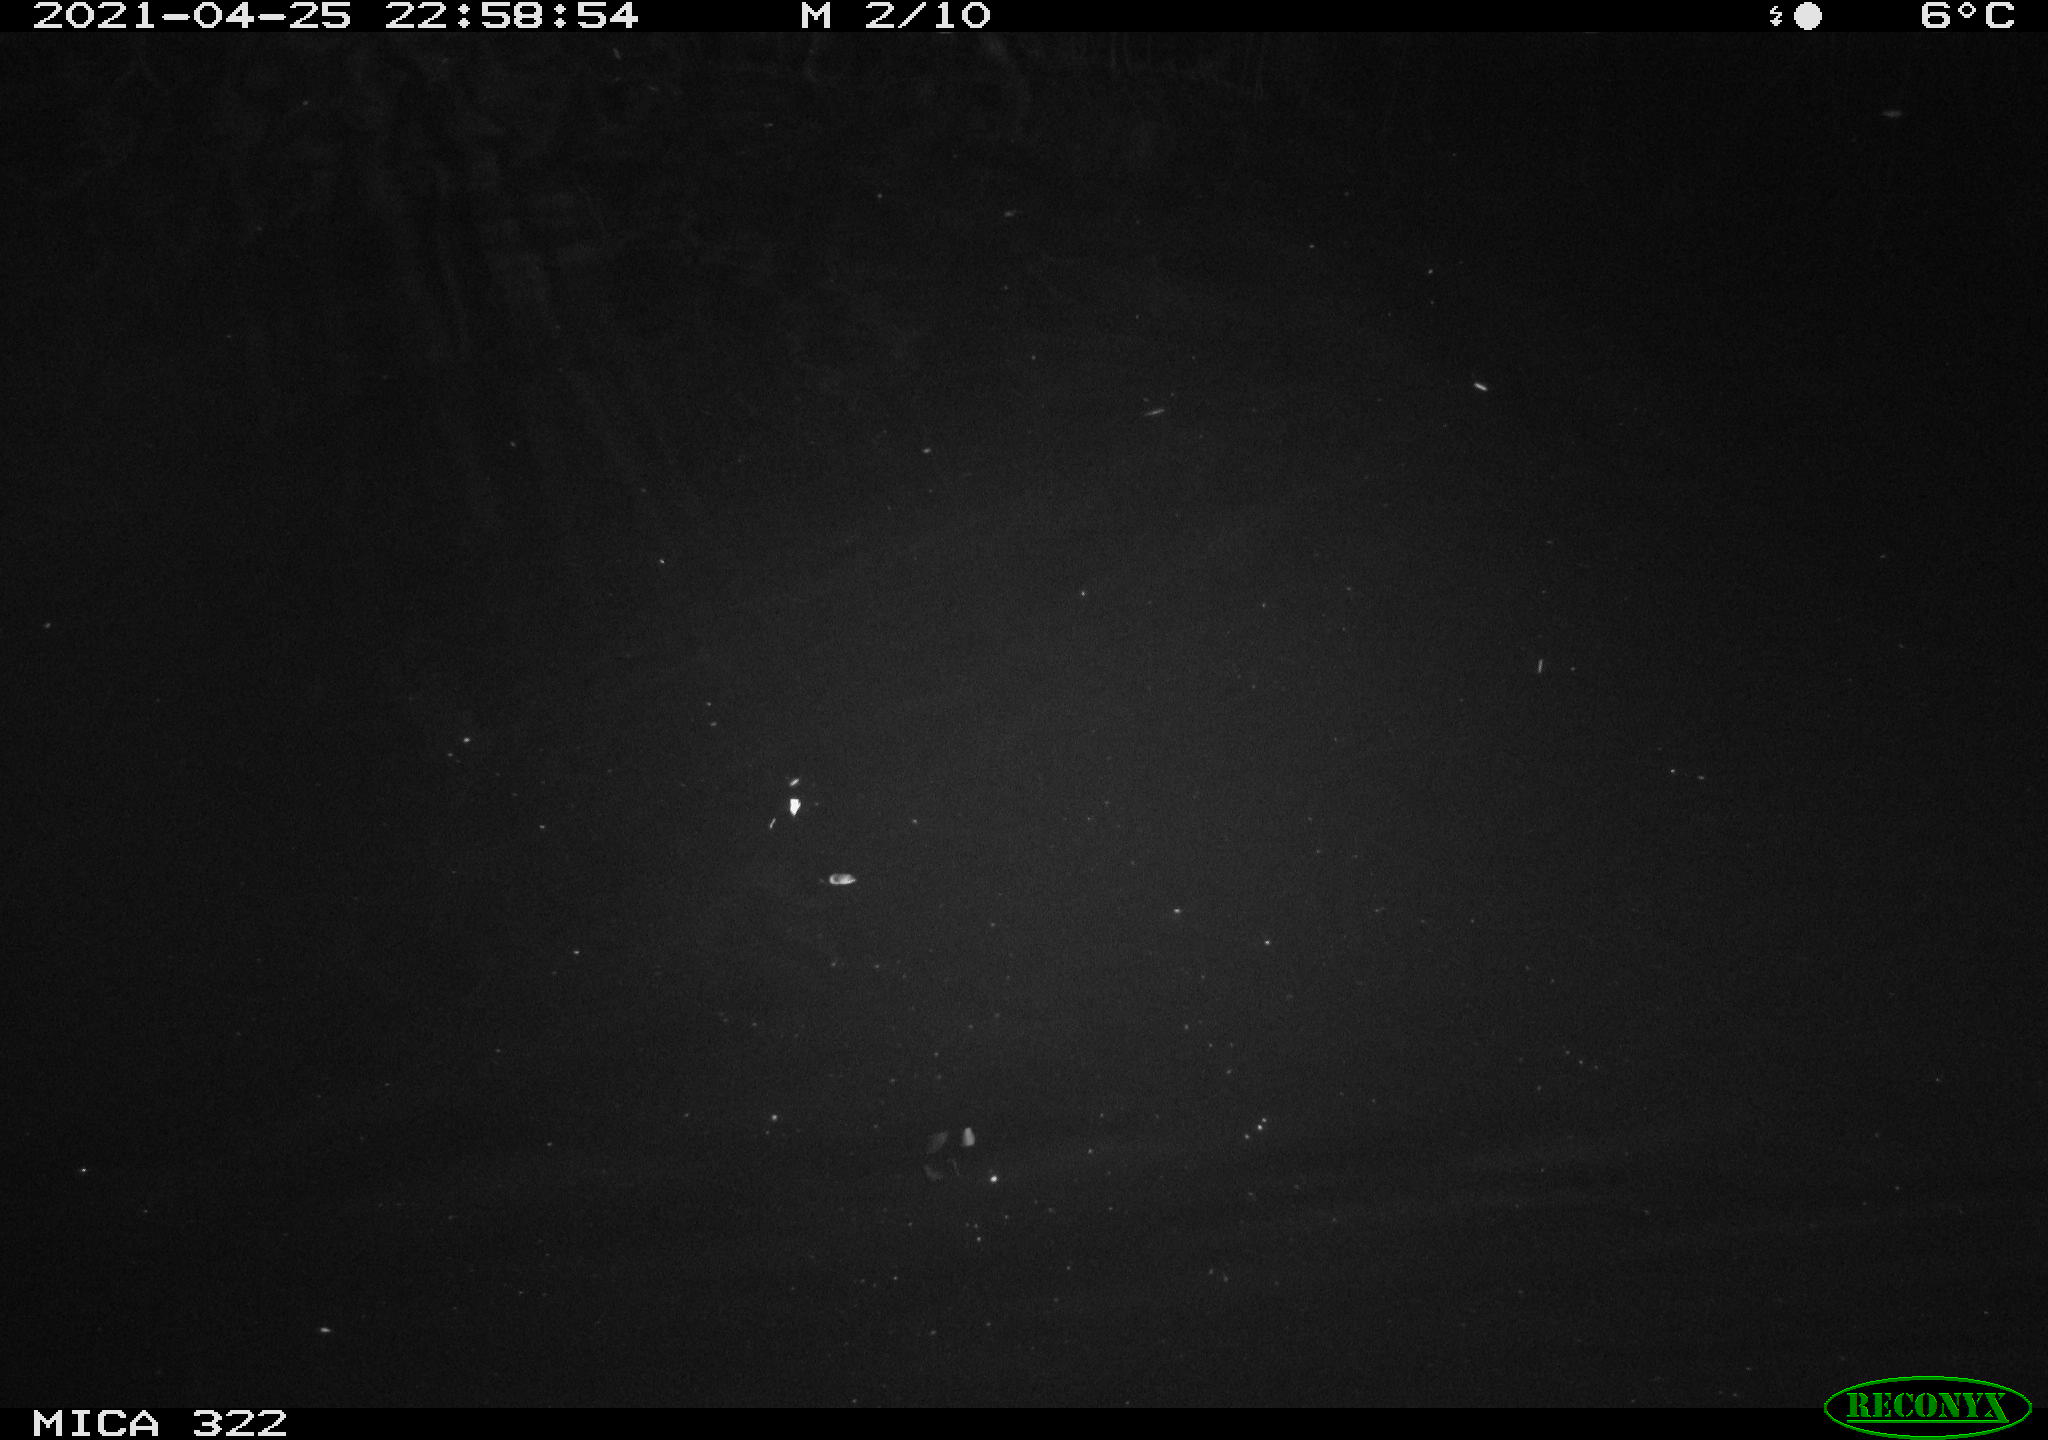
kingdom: Animalia
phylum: Chordata
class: Aves
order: Anseriformes
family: Anatidae
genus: Anas
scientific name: Anas platyrhynchos
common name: Mallard
